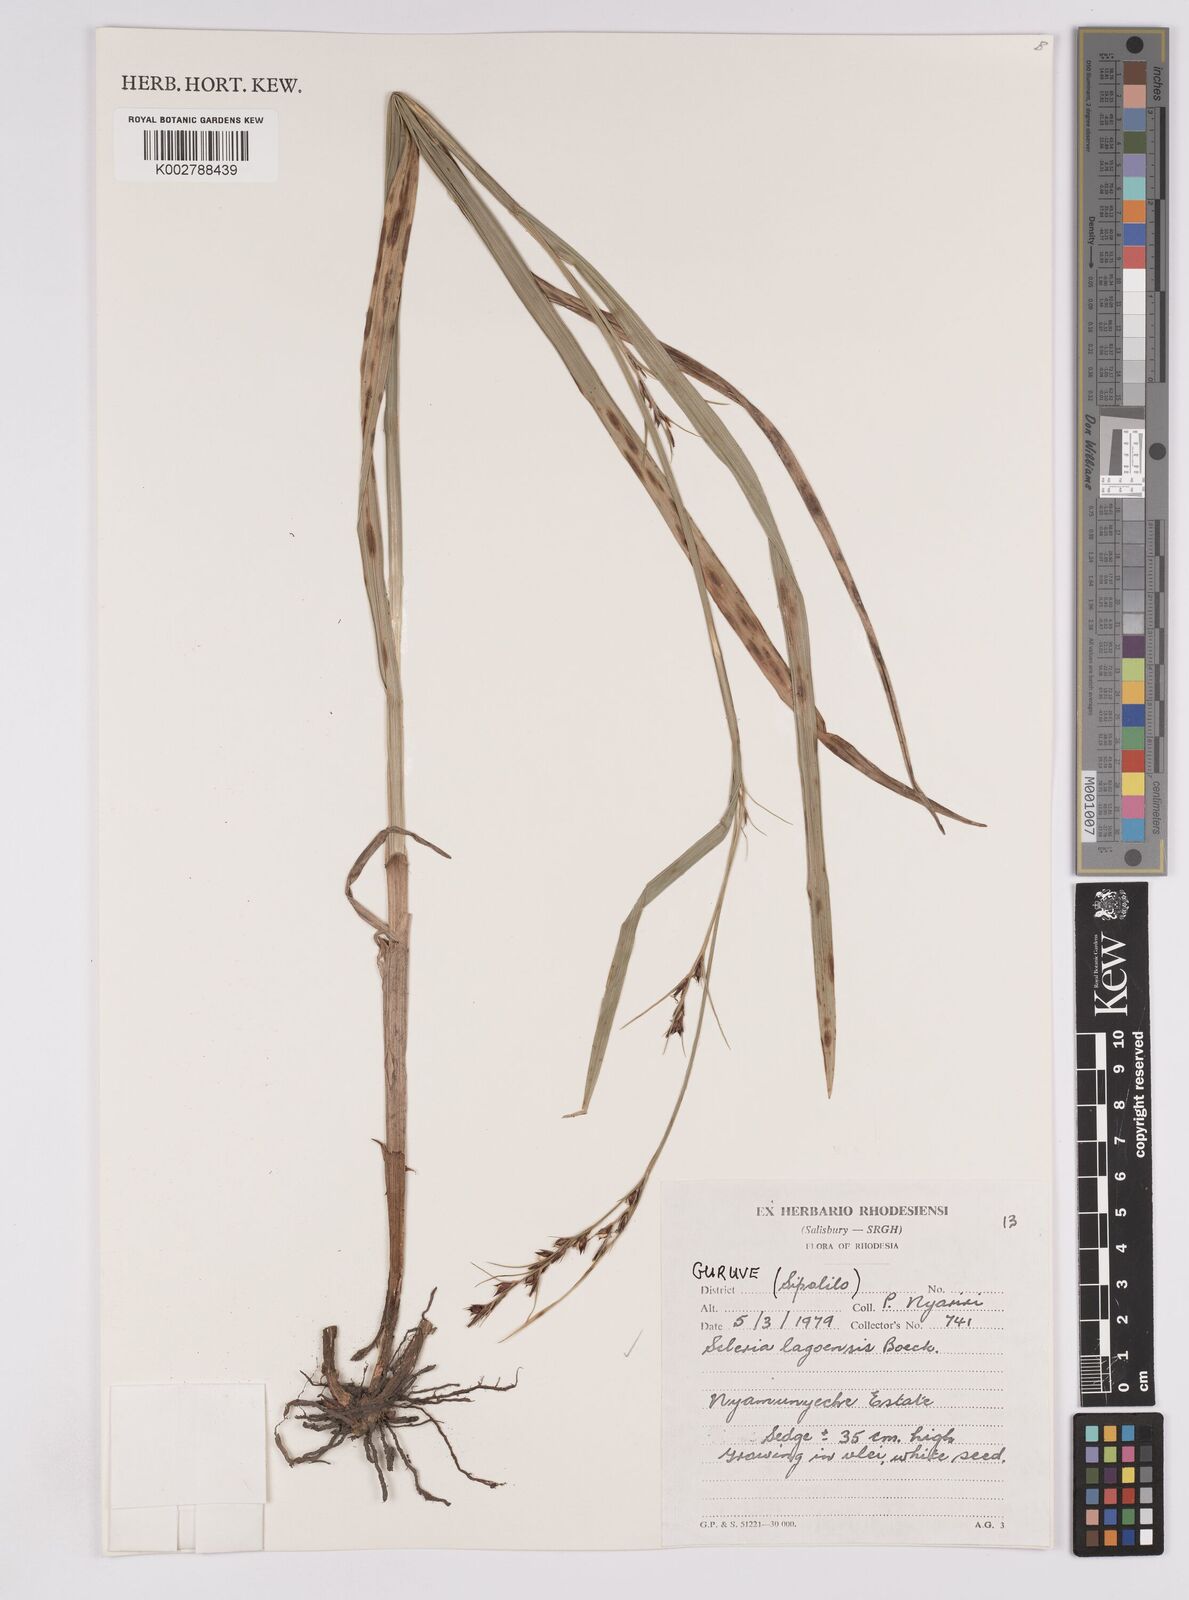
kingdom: Plantae
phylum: Tracheophyta
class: Liliopsida
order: Poales
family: Cyperaceae
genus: Scleria
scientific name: Scleria lagoensis
